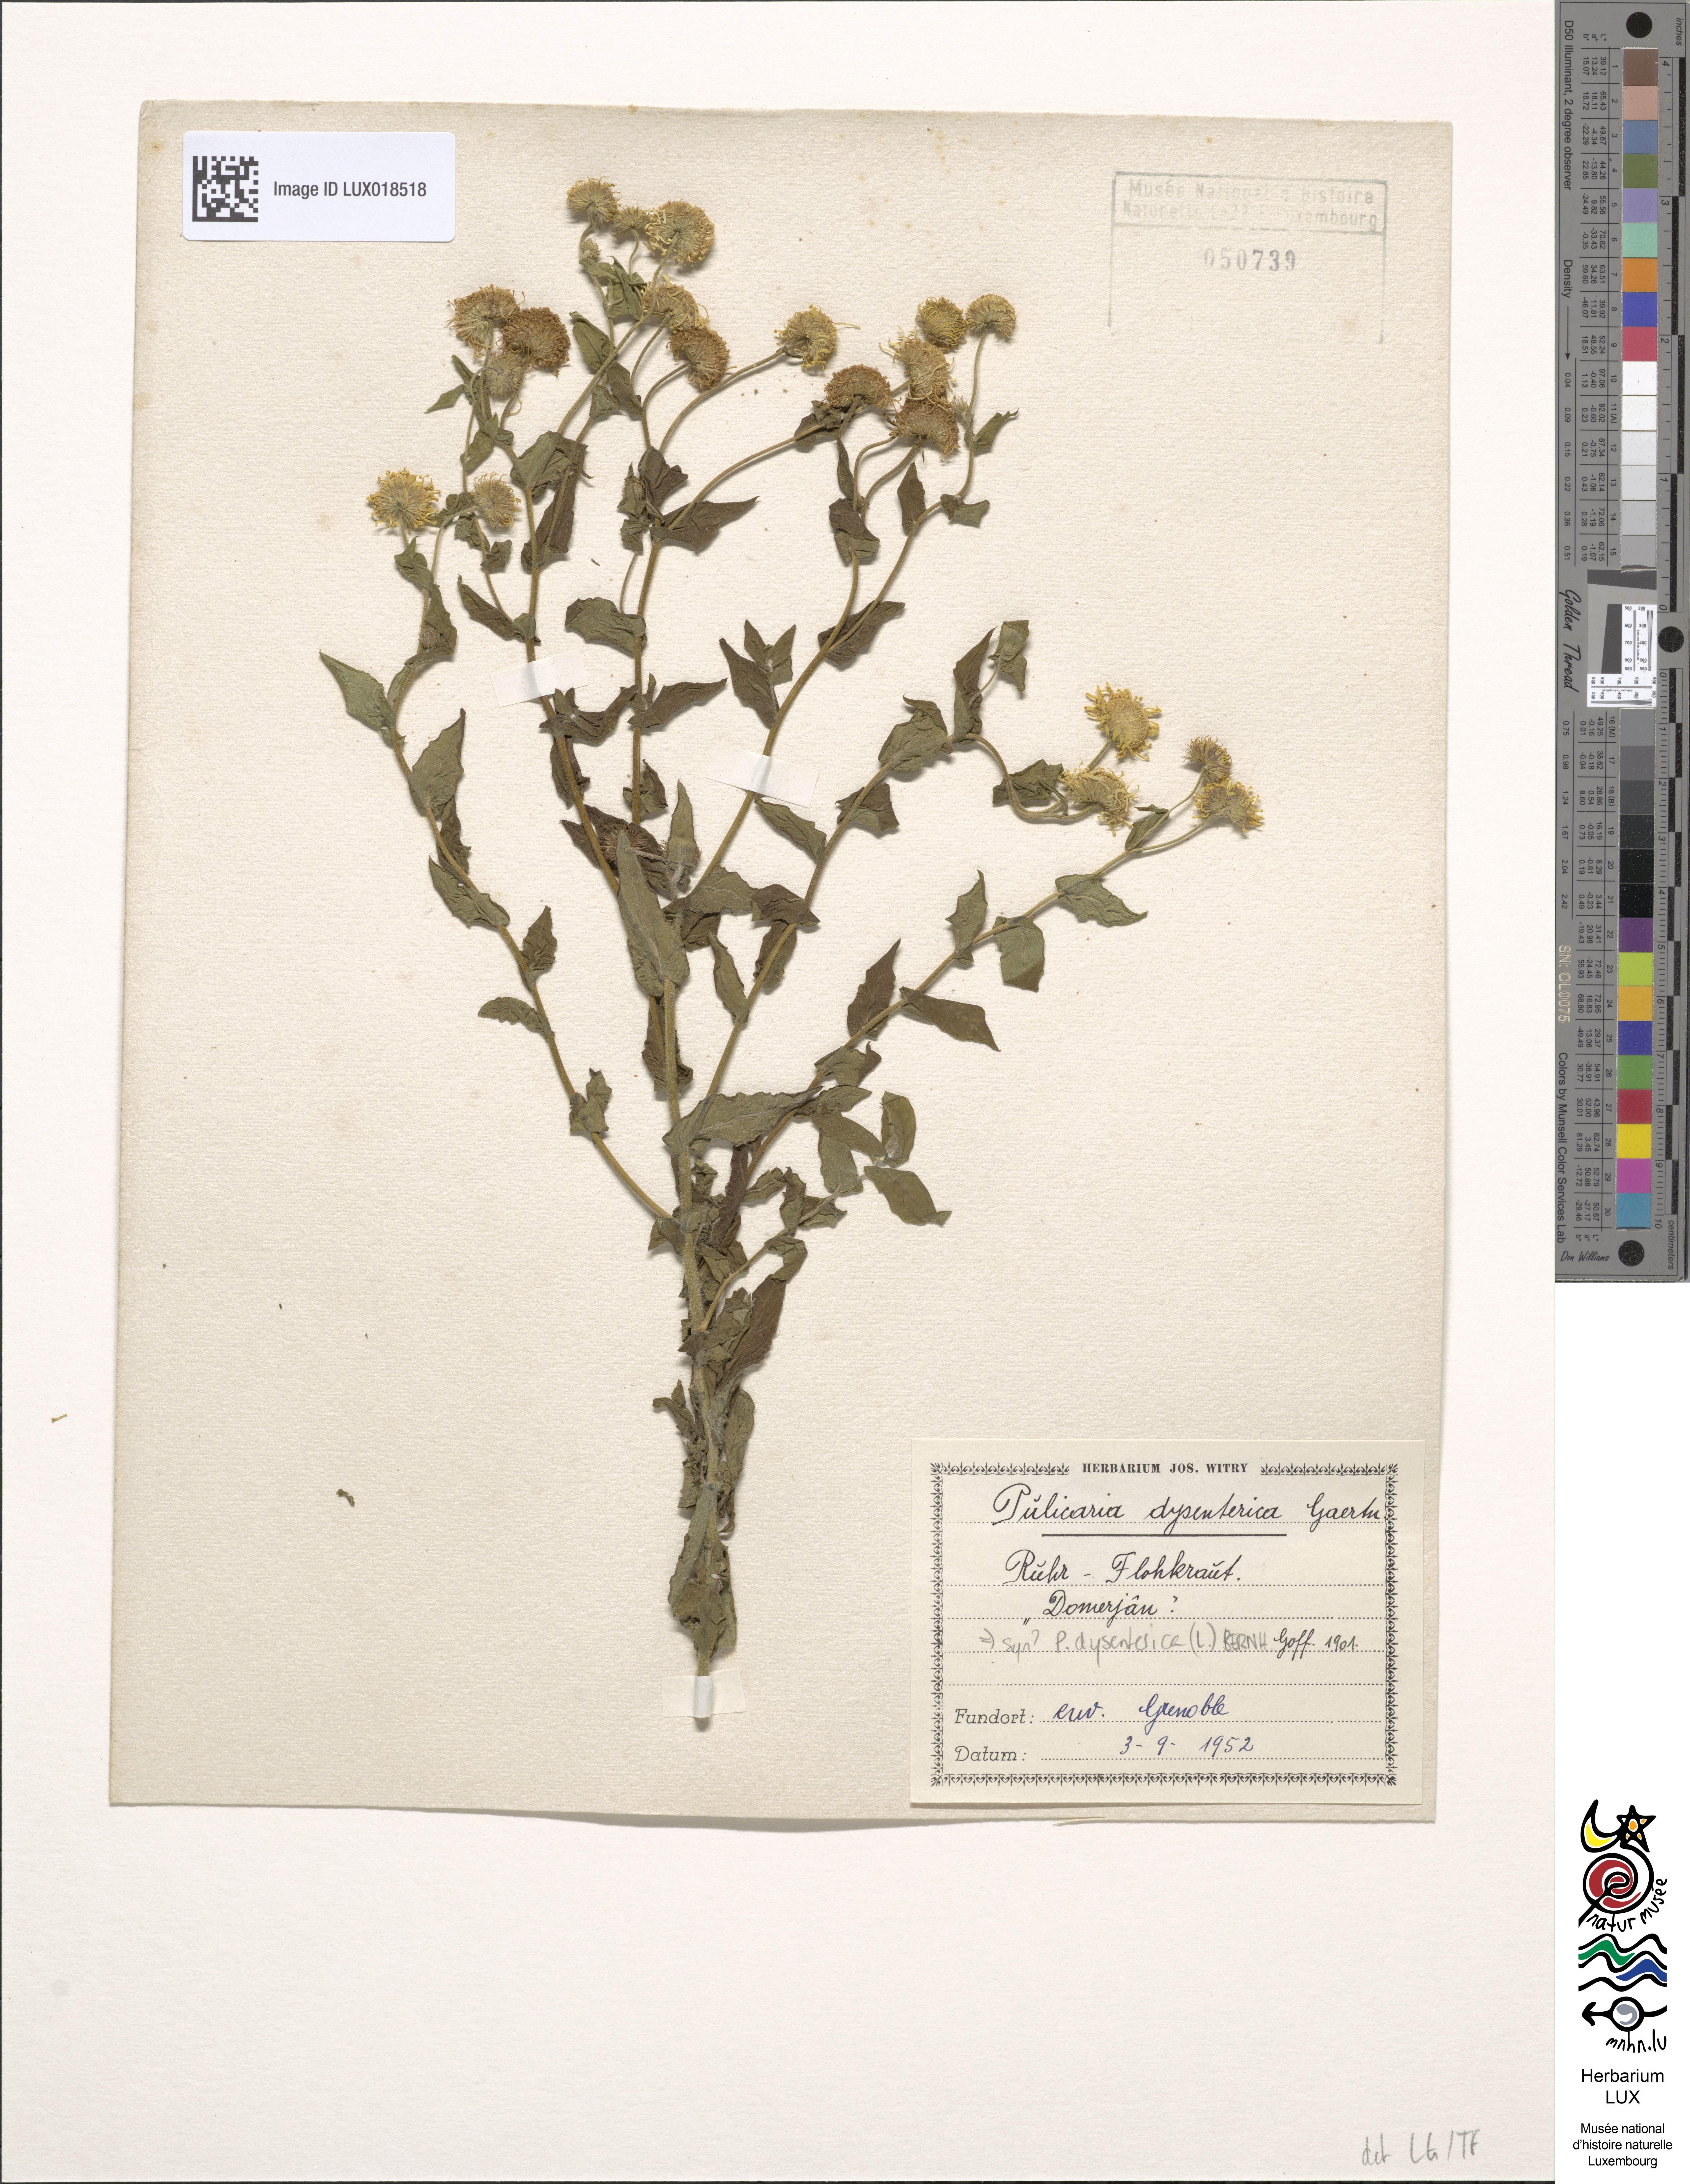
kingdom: Plantae
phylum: Tracheophyta
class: Magnoliopsida
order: Asterales
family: Asteraceae
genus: Pulicaria
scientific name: Pulicaria dysenterica
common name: Common fleabane
